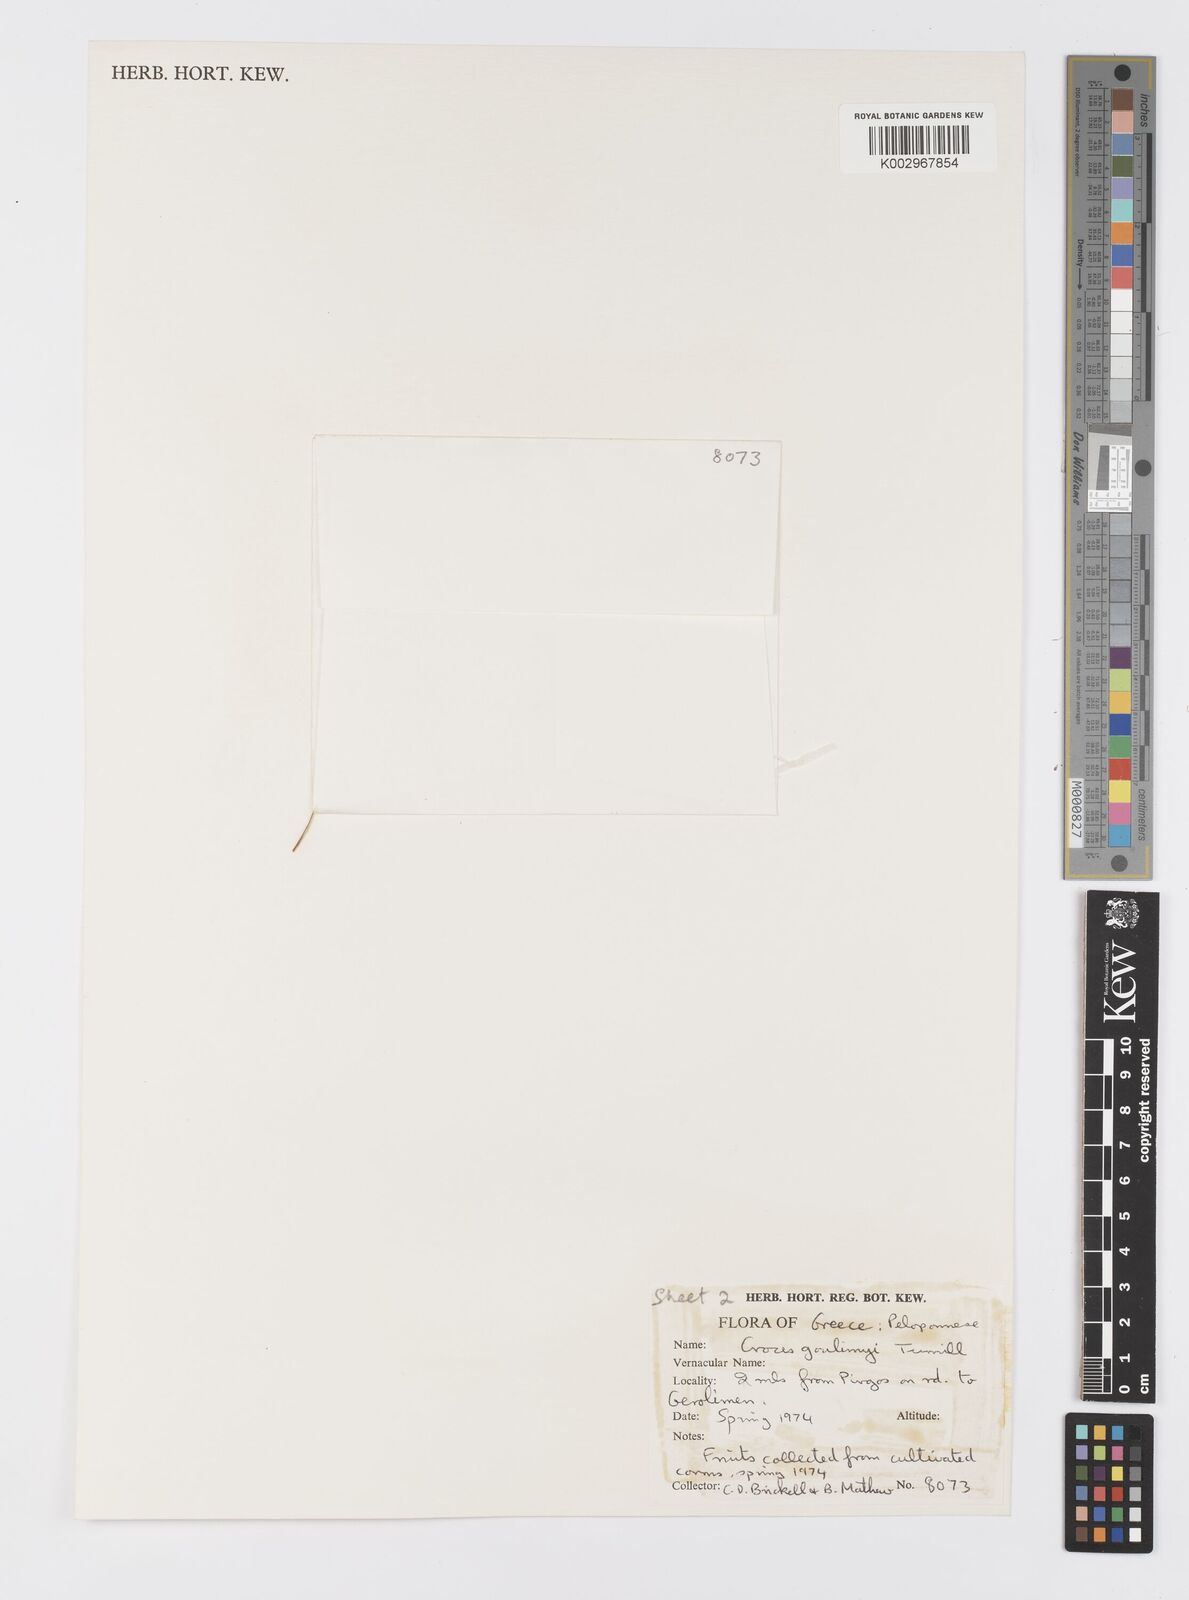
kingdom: Plantae
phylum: Tracheophyta
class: Liliopsida
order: Asparagales
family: Iridaceae
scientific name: Iridaceae
